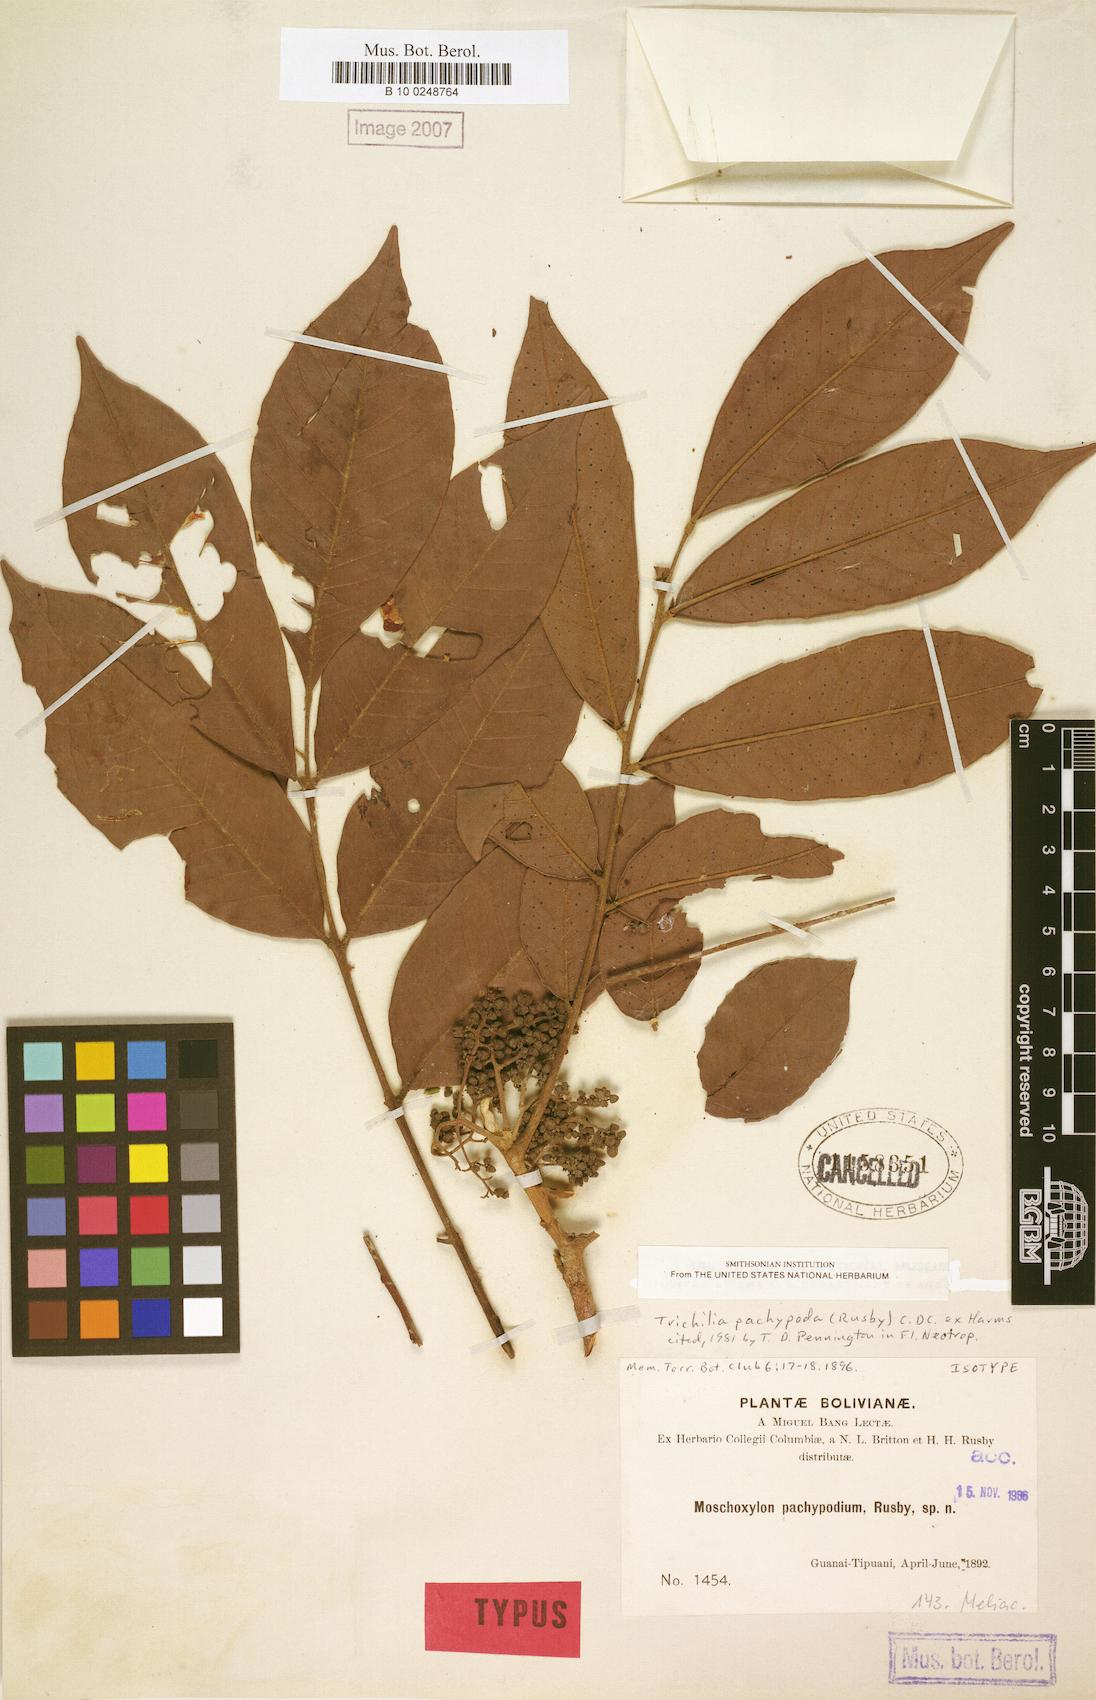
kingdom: Plantae
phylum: Tracheophyta
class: Magnoliopsida
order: Sapindales
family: Meliaceae
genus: Trichilia
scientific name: Trichilia pachypoda
